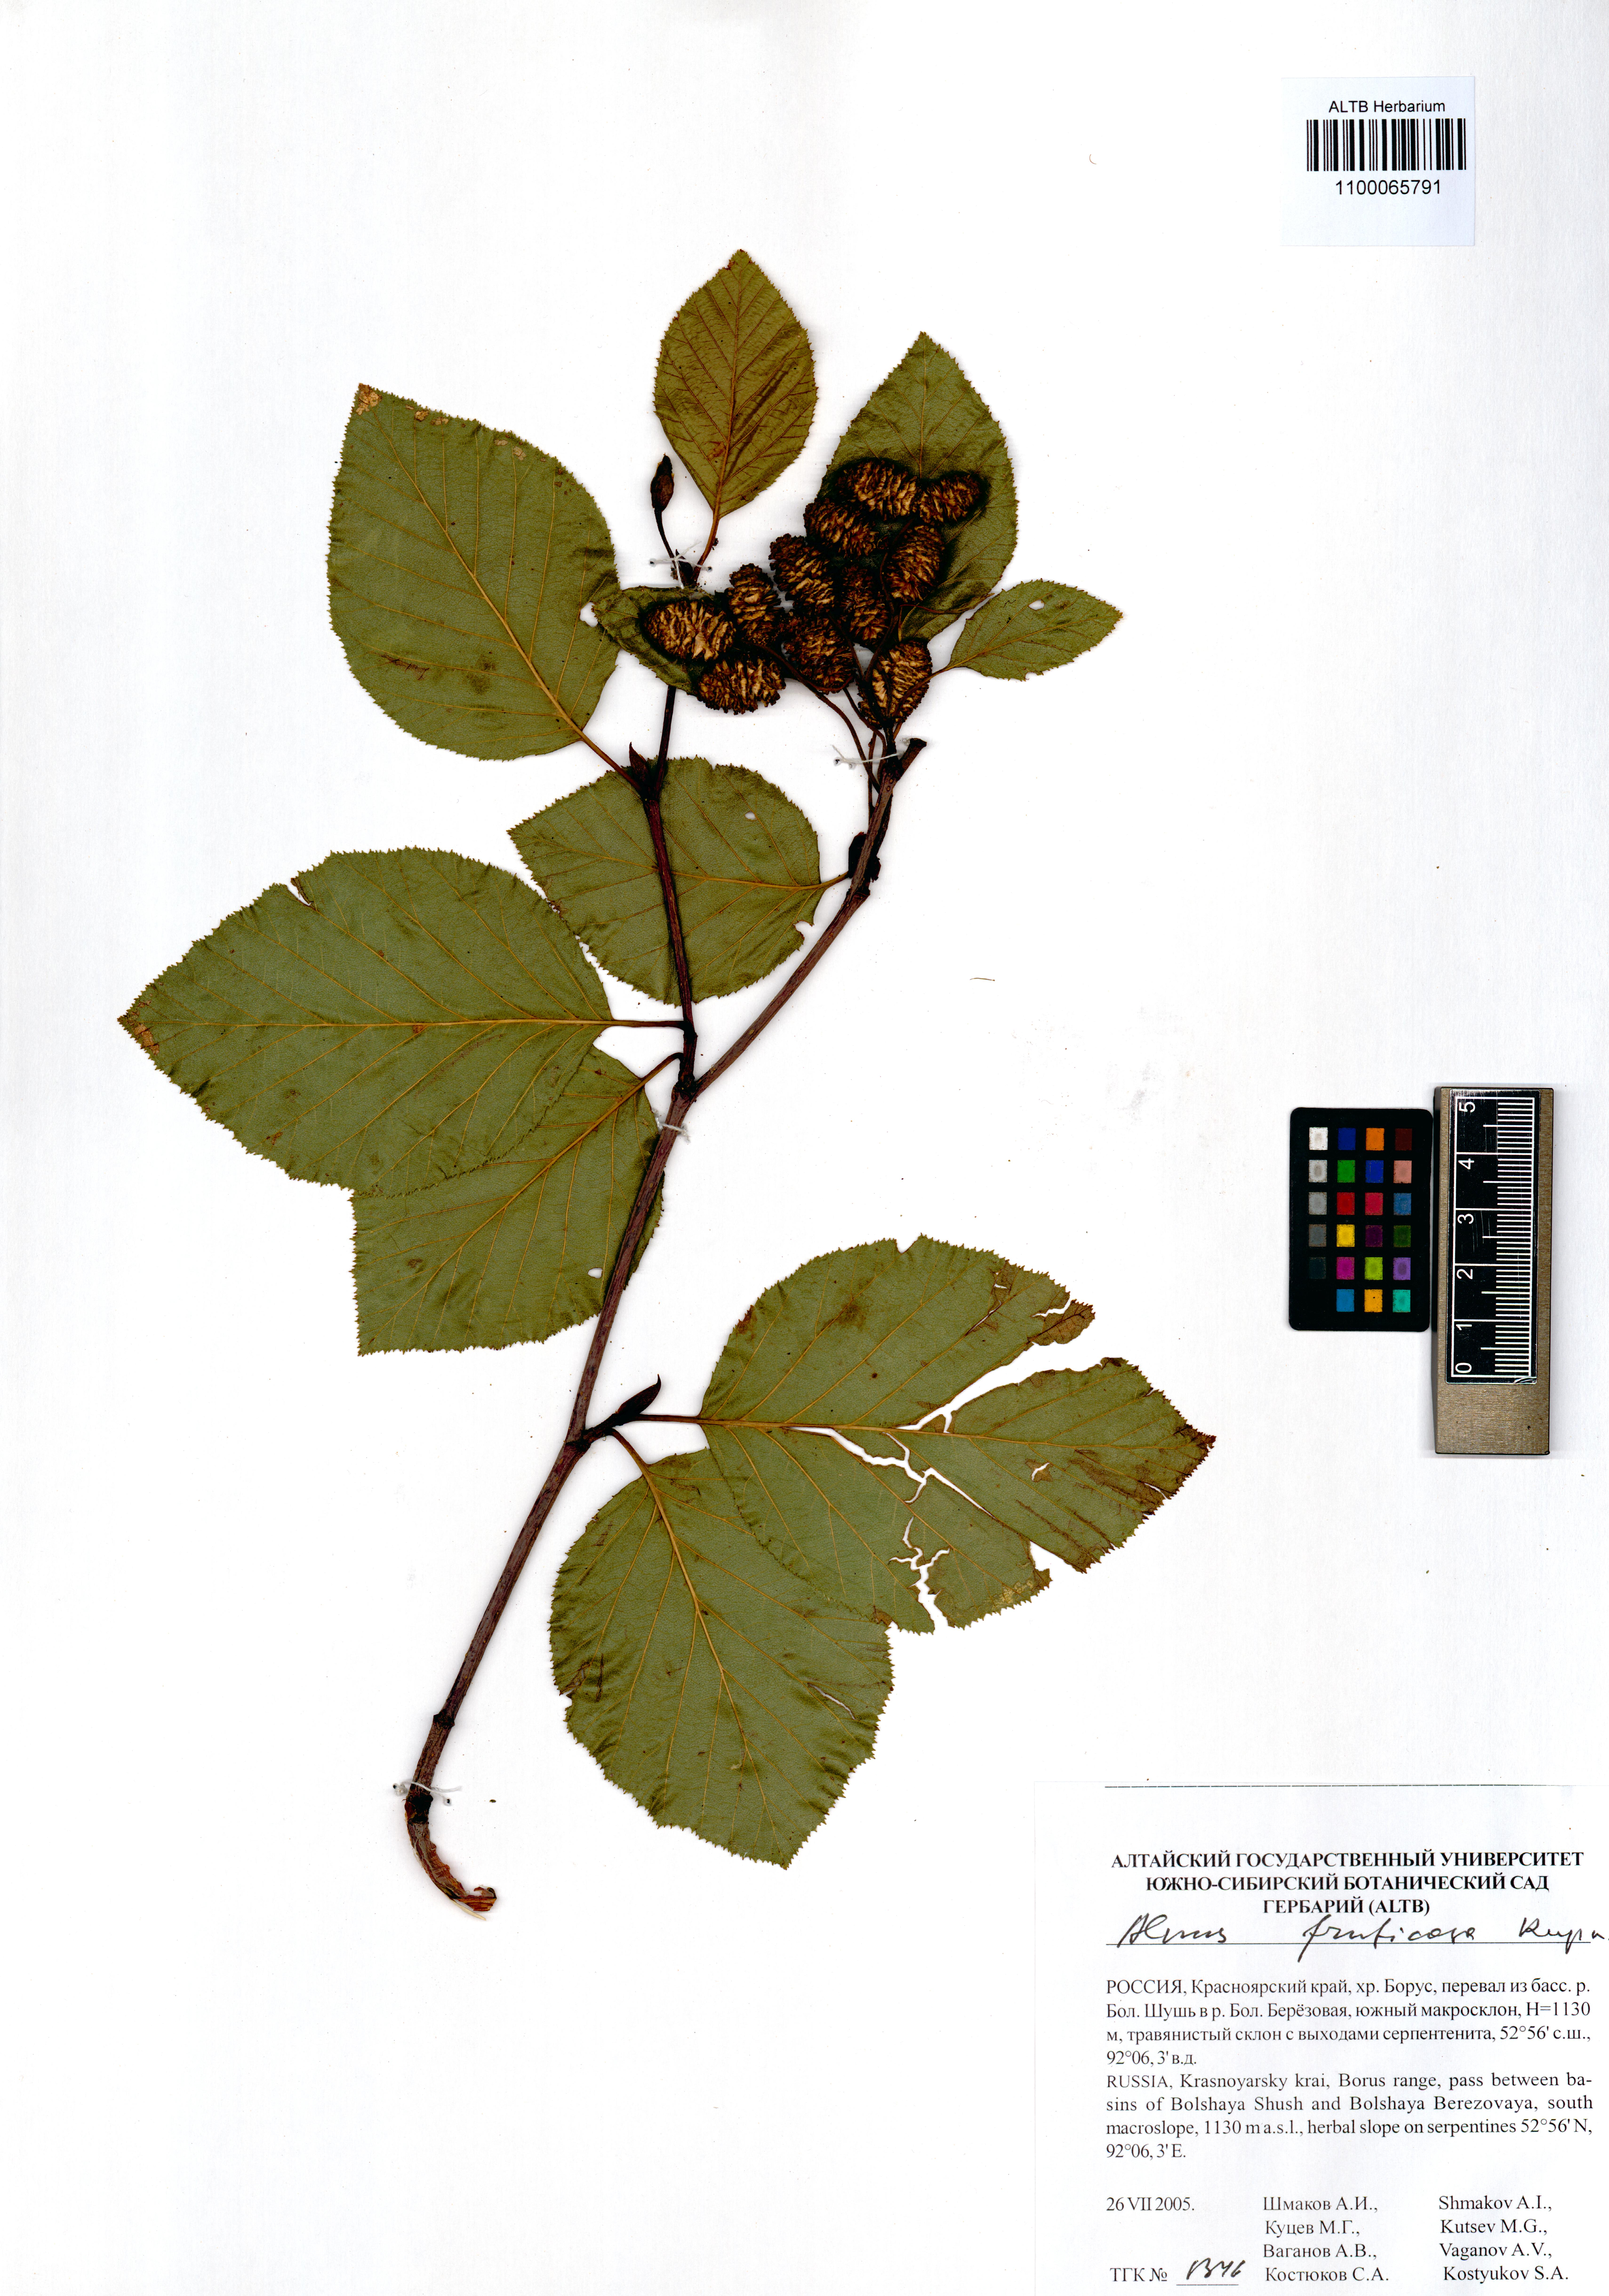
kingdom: Plantae
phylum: Tracheophyta
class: Magnoliopsida
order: Fagales
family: Betulaceae
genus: Alnus
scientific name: Alnus alnobetula
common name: Green alder
